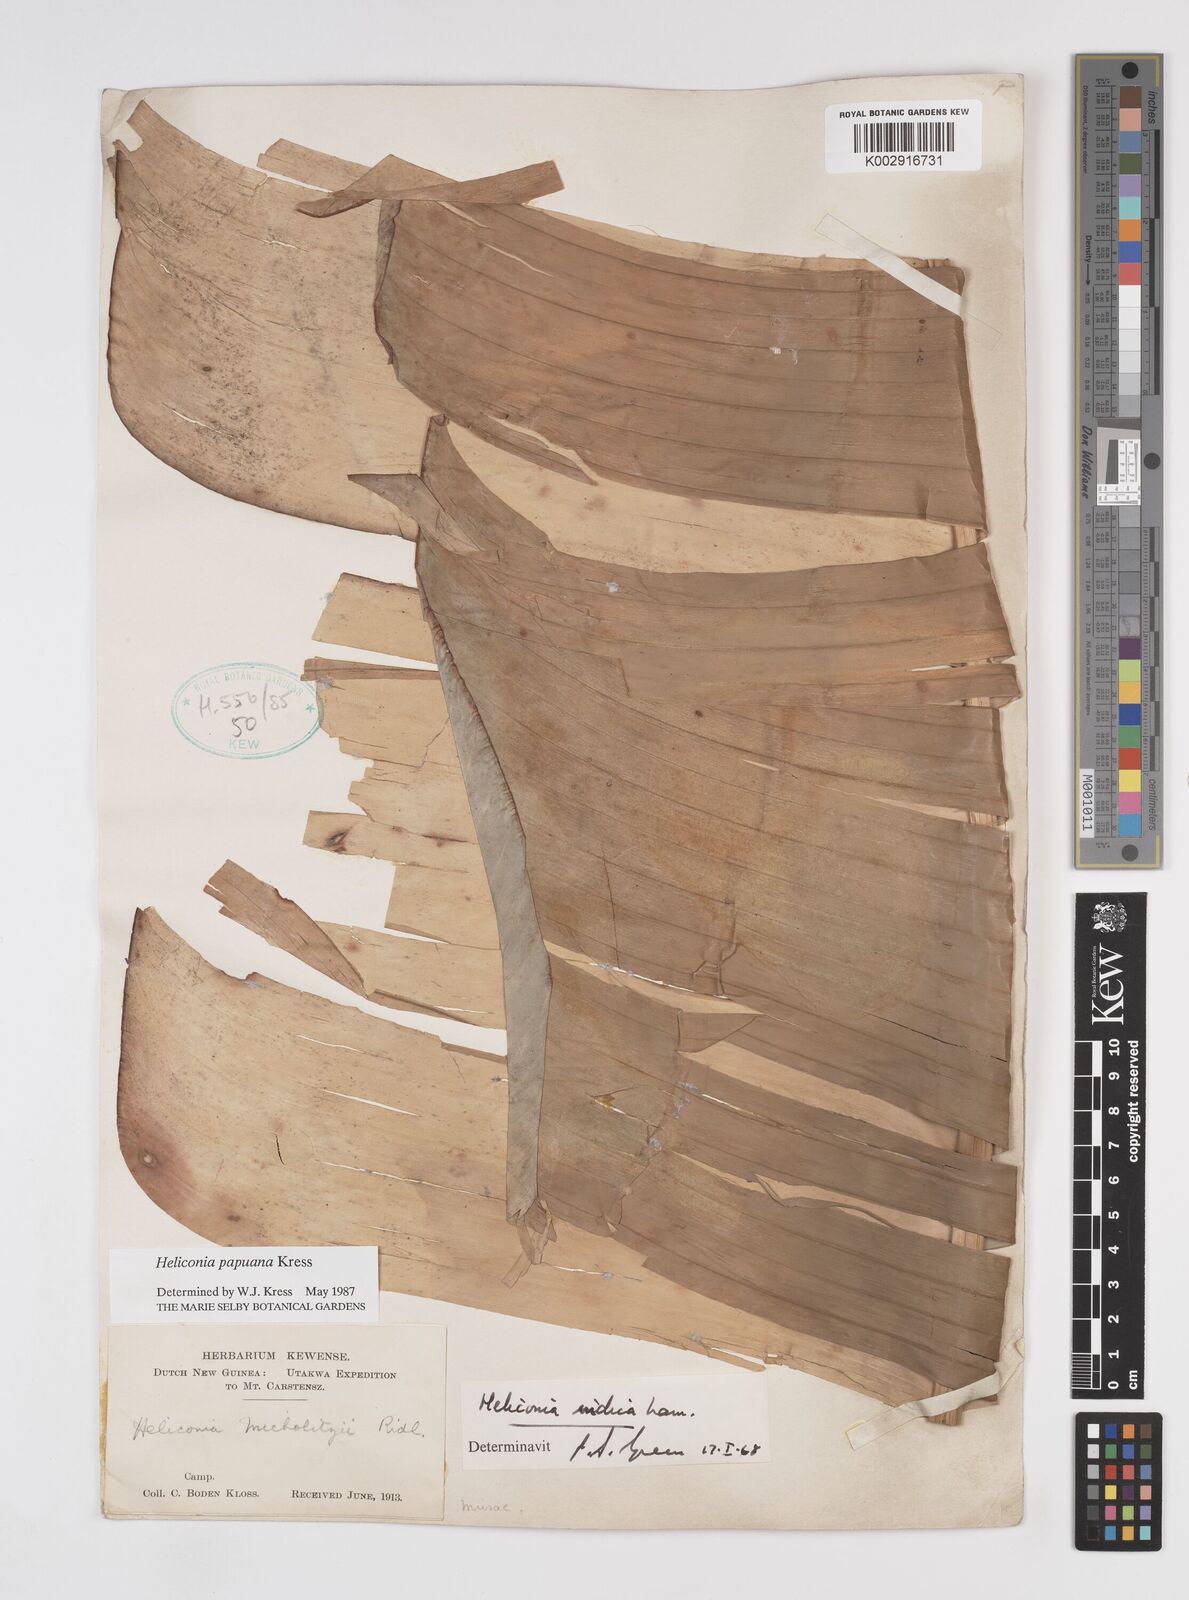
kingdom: Plantae
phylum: Tracheophyta
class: Liliopsida
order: Zingiberales
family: Heliconiaceae
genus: Heliconia
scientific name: Heliconia papuana
